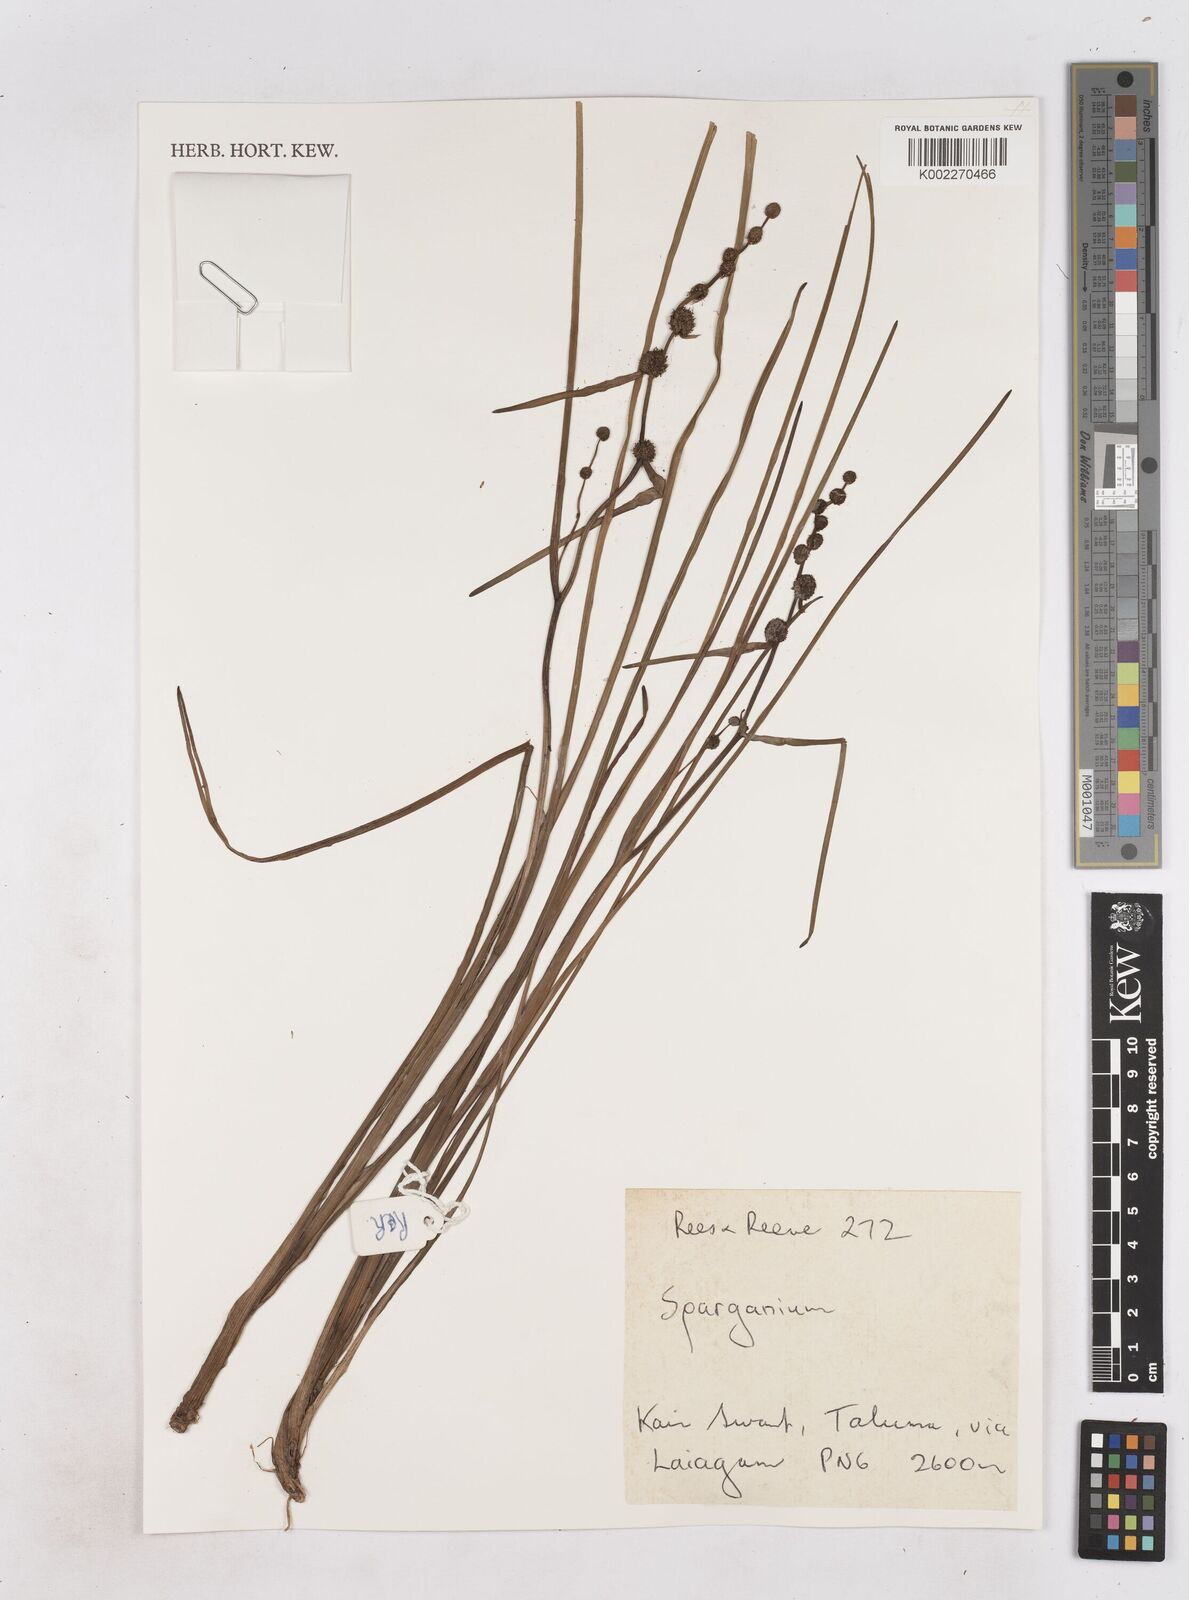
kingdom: Plantae
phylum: Tracheophyta
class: Liliopsida
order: Poales
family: Typhaceae
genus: Sparganium
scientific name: Sparganium subglobosum
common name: Burr­-reed
